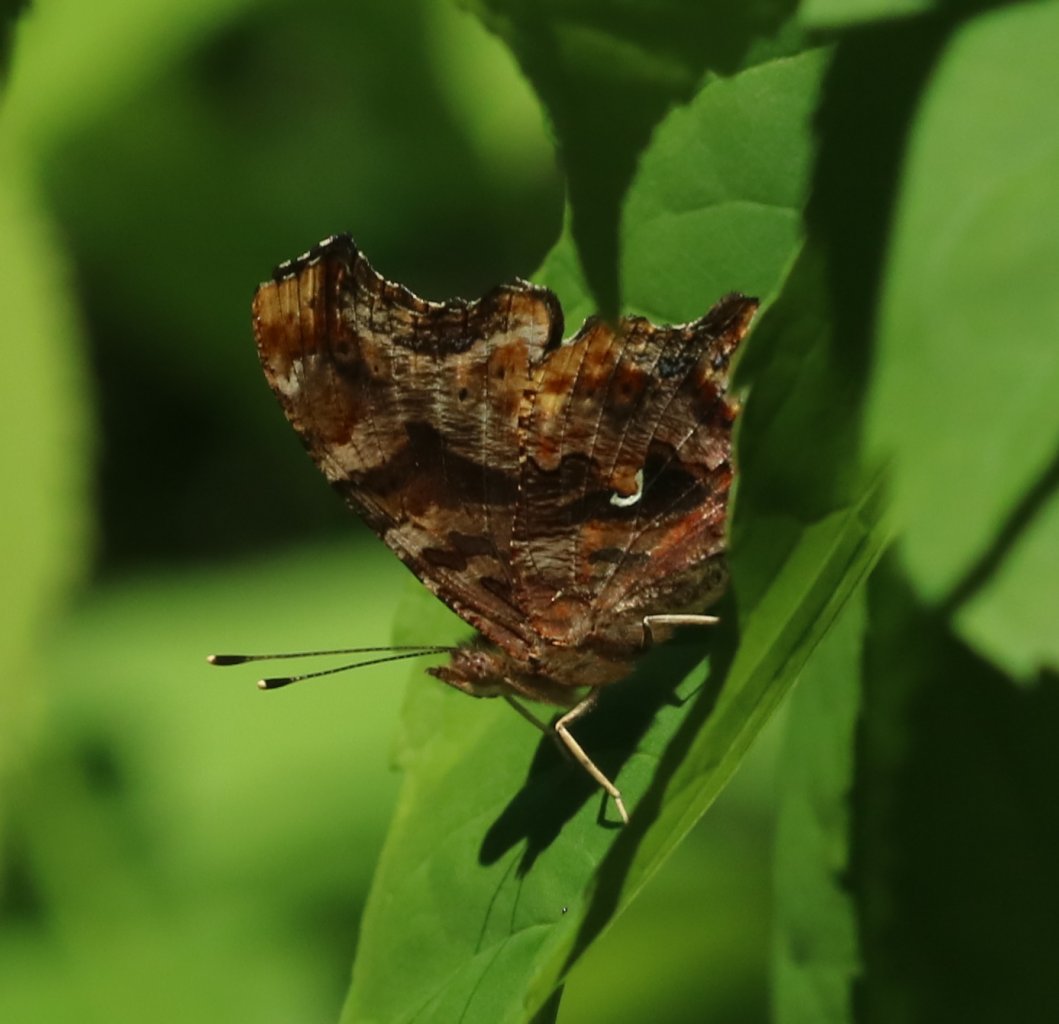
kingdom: Animalia
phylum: Arthropoda
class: Insecta
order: Lepidoptera
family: Nymphalidae
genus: Polygonia
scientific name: Polygonia comma
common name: Eastern Comma
